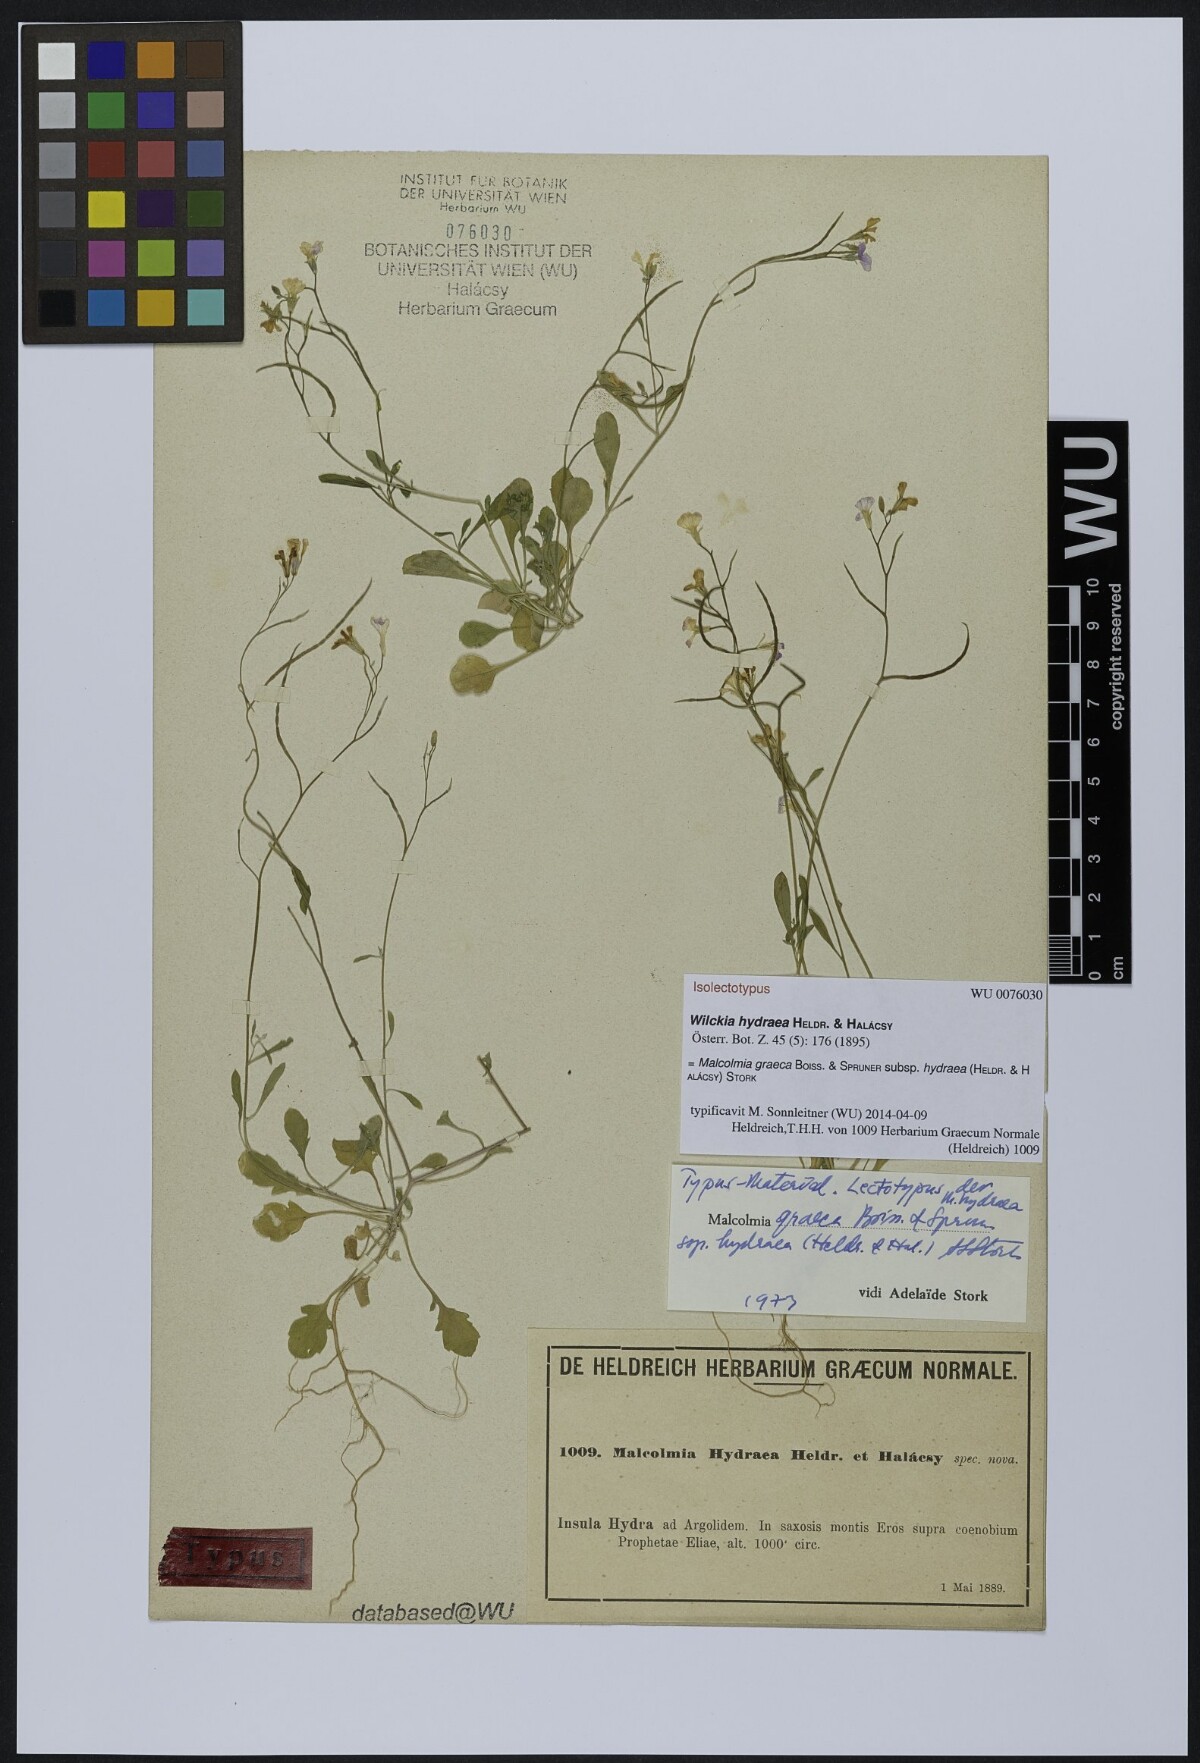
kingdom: Plantae
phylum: Tracheophyta
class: Magnoliopsida
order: Brassicales
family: Brassicaceae
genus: Malcolmia
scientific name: Malcolmia graeca
